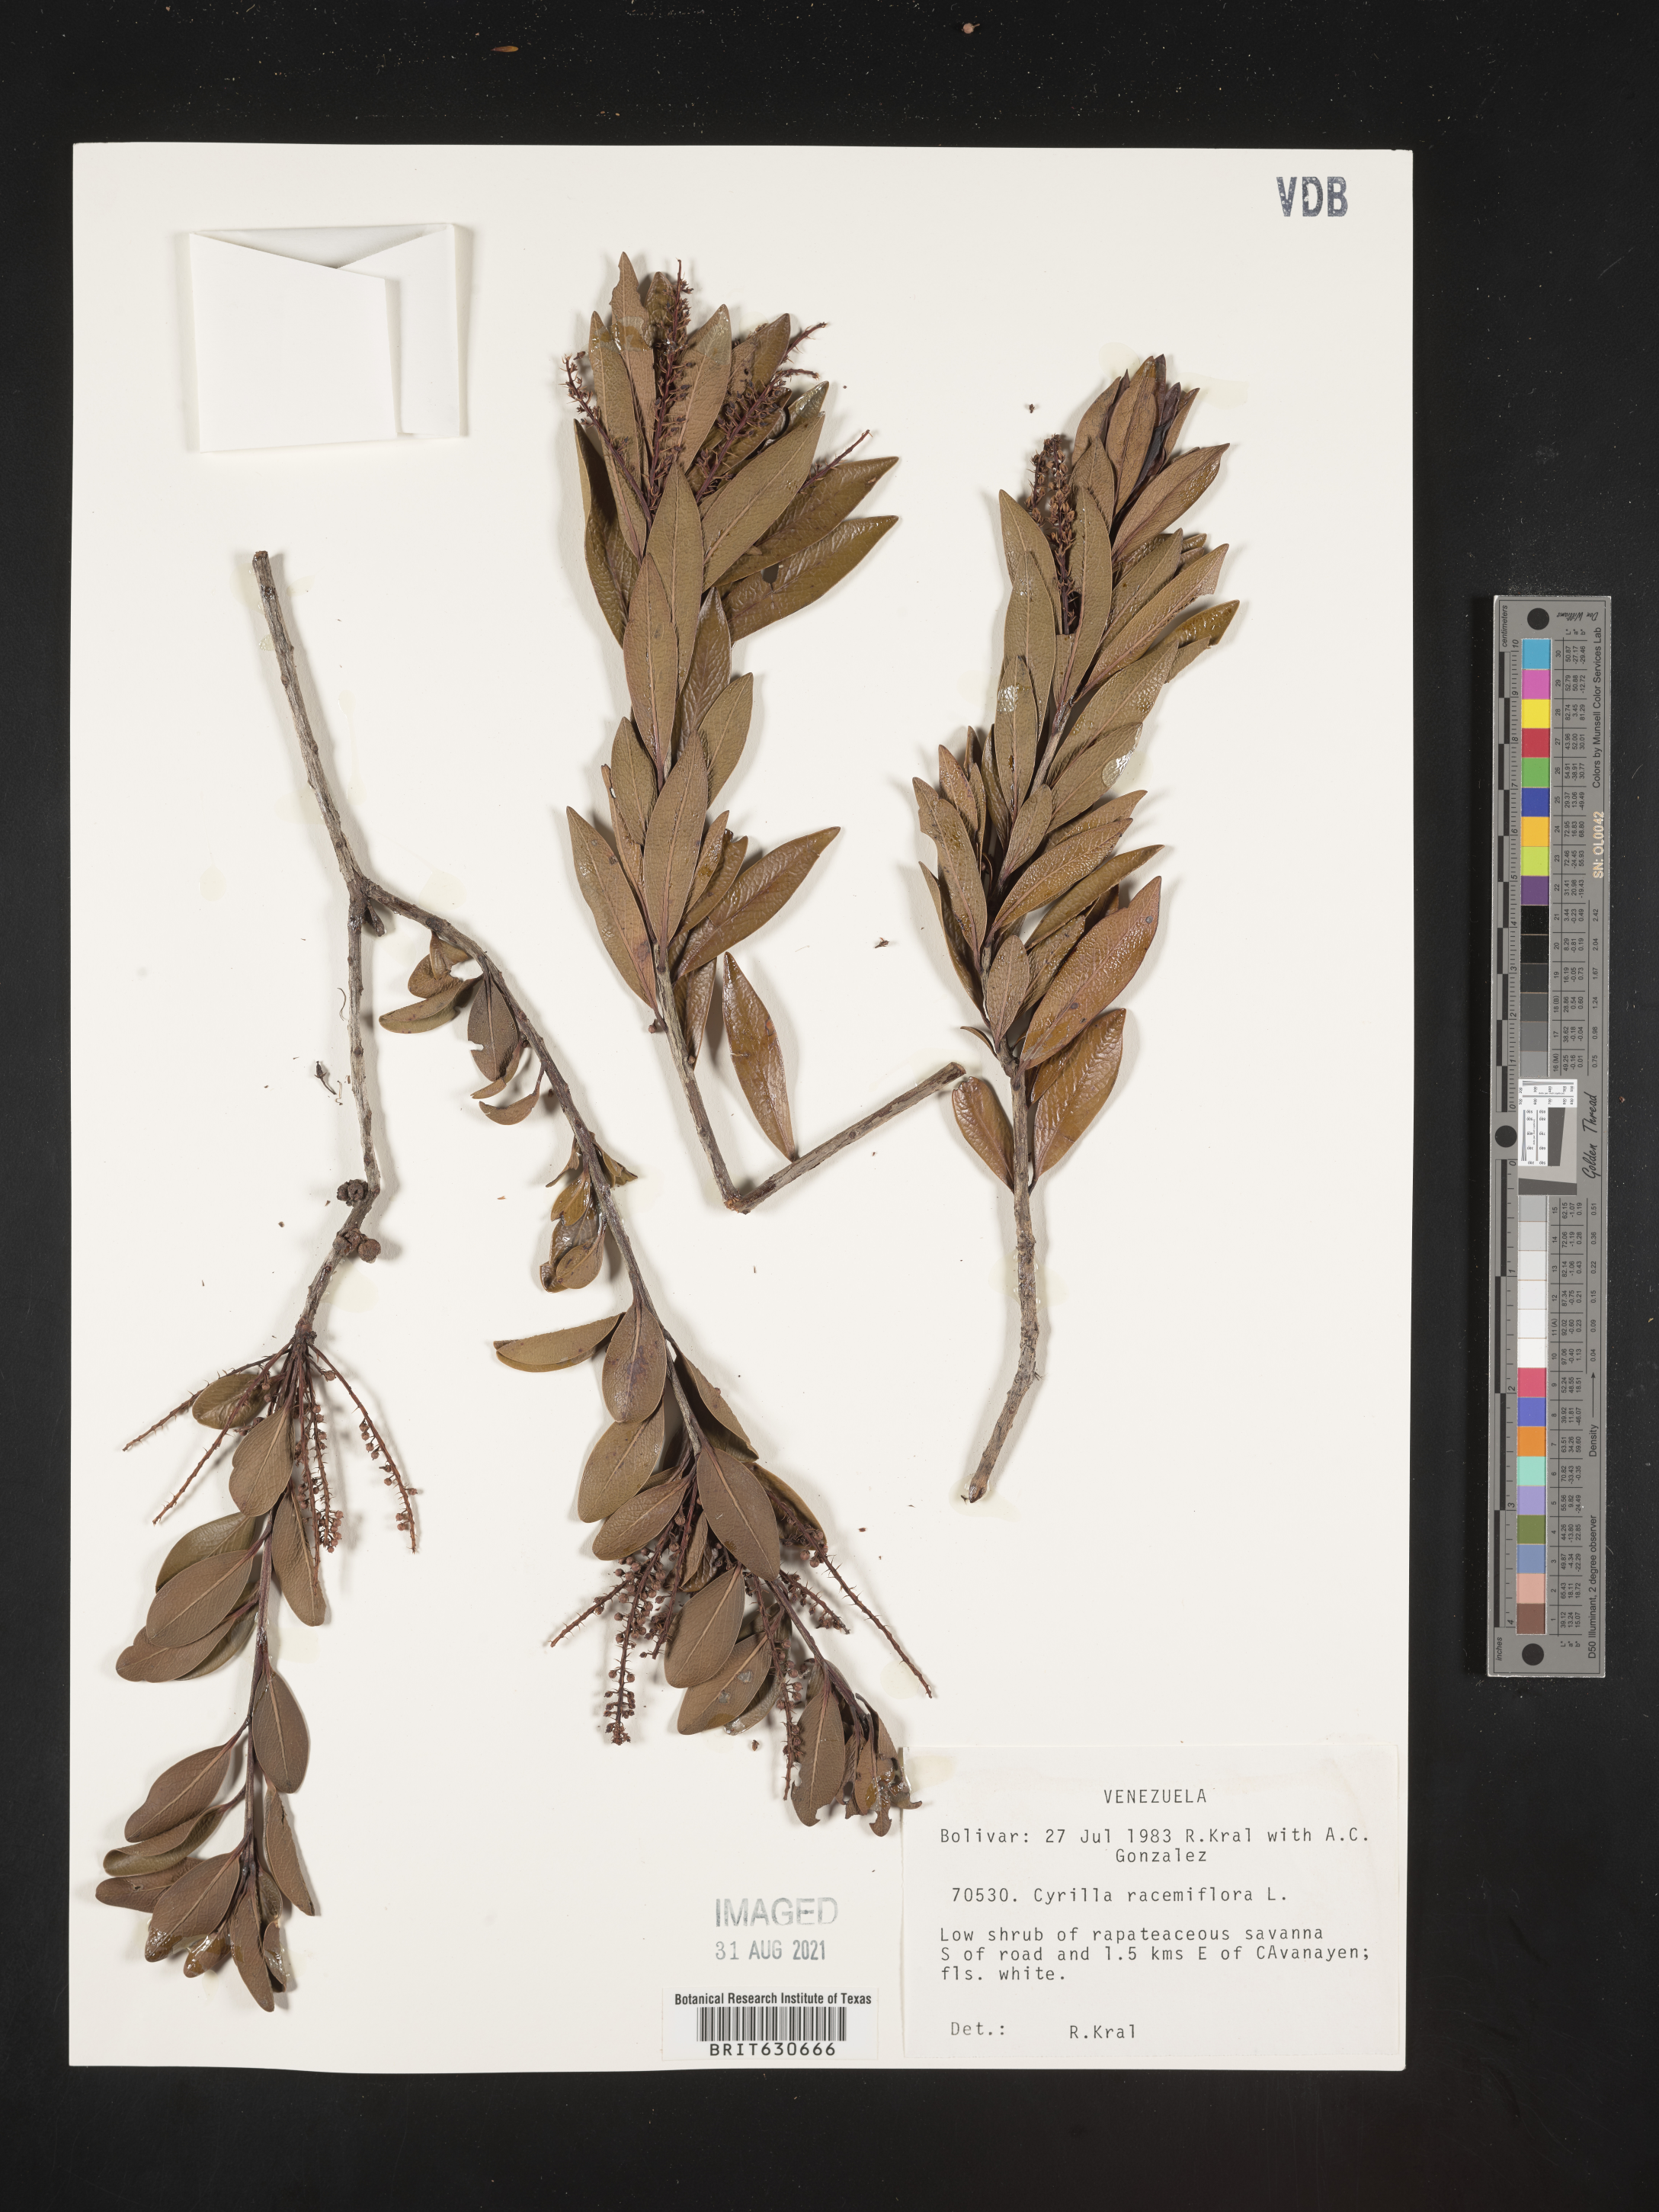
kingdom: Plantae
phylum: Tracheophyta
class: Magnoliopsida
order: Ericales
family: Cyrillaceae
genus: Cyrilla
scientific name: Cyrilla racemiflora
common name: Black titi
